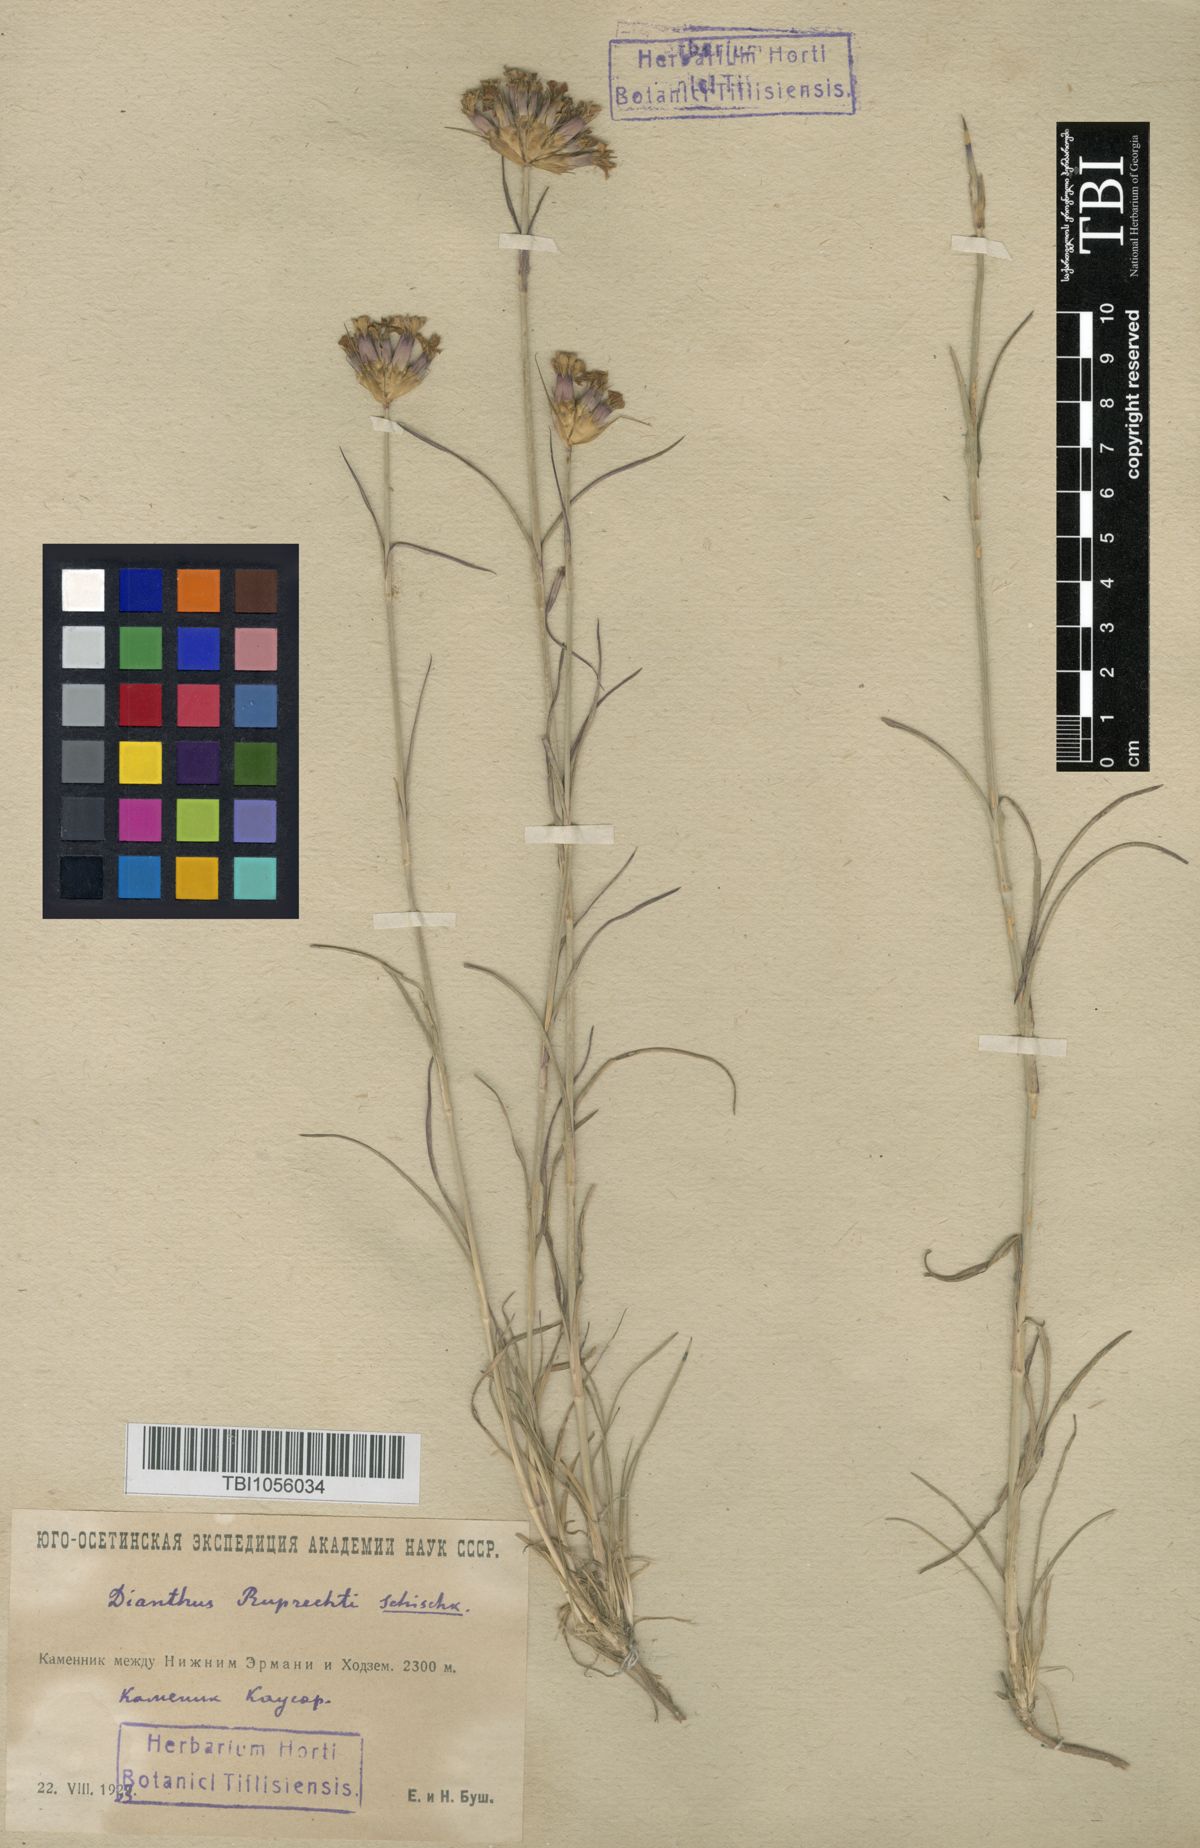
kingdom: Plantae
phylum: Tracheophyta
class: Magnoliopsida
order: Caryophyllales
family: Caryophyllaceae
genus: Dianthus
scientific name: Dianthus ruprechtii
